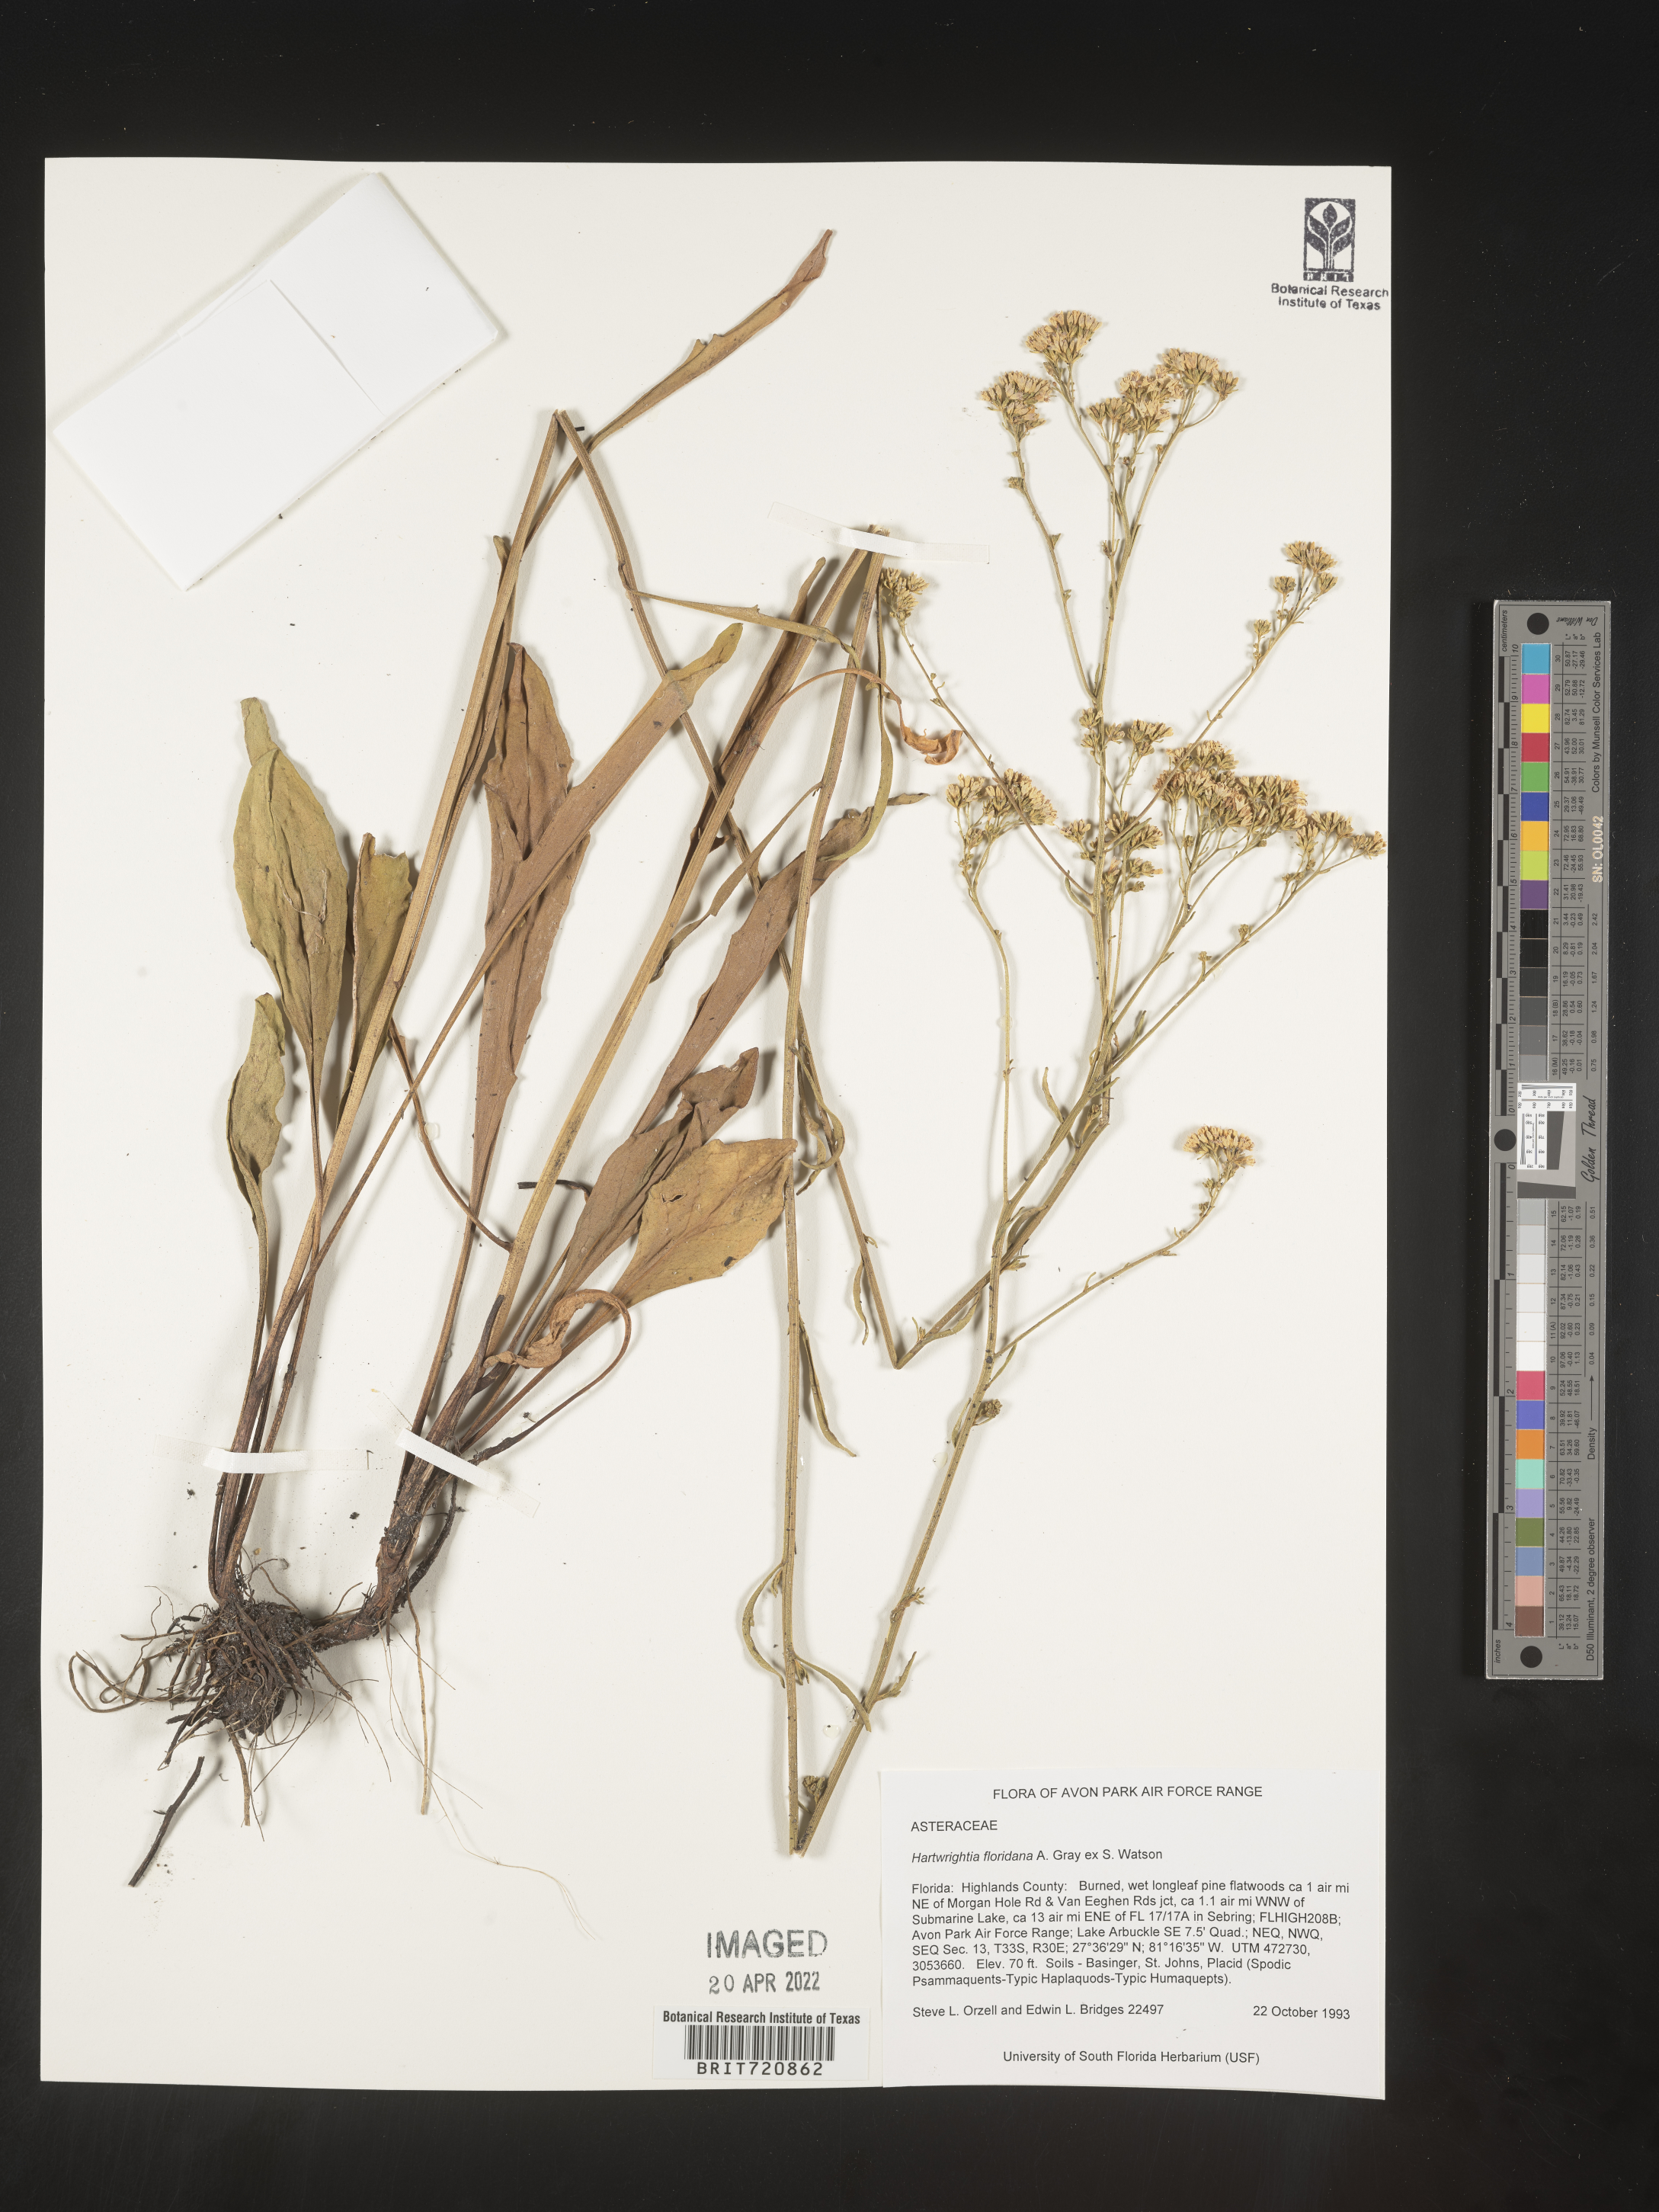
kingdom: Plantae
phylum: Tracheophyta
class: Magnoliopsida
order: Asterales
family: Asteraceae
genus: Hartwrightia
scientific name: Hartwrightia
